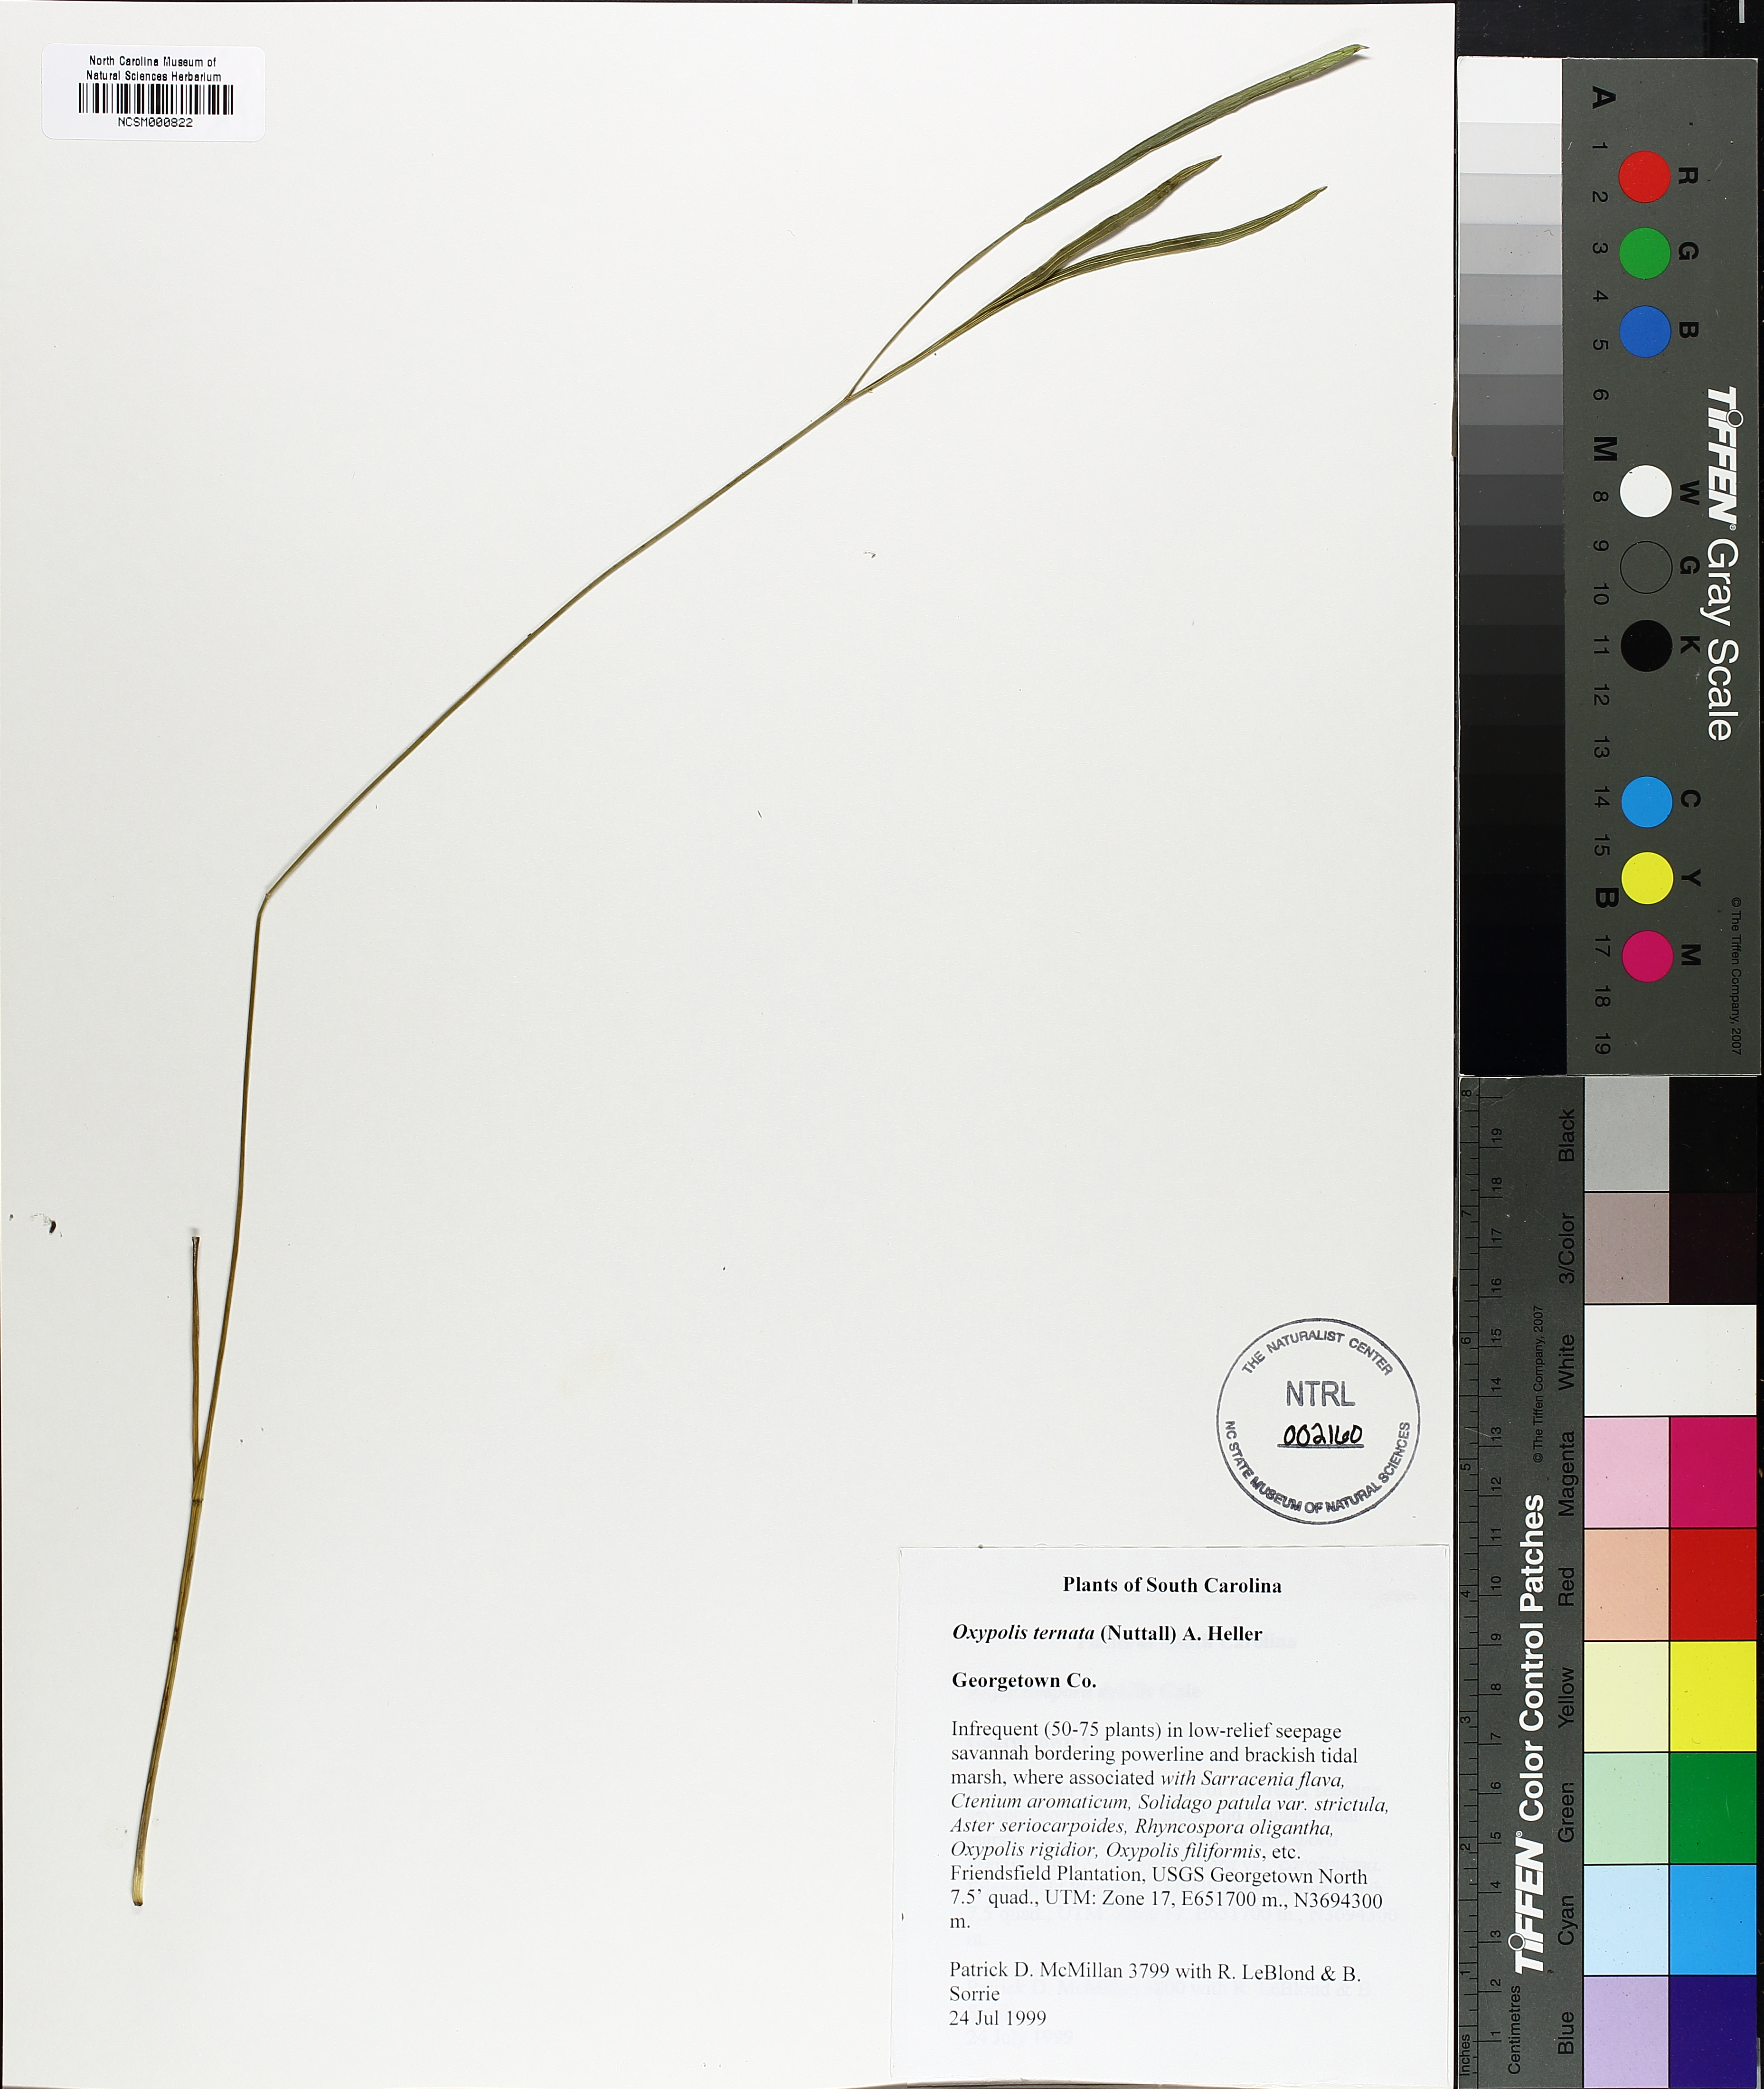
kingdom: Plantae
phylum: Tracheophyta
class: Magnoliopsida
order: Apiales
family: Apiaceae
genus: Oxypolis
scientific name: Oxypolis ternata
